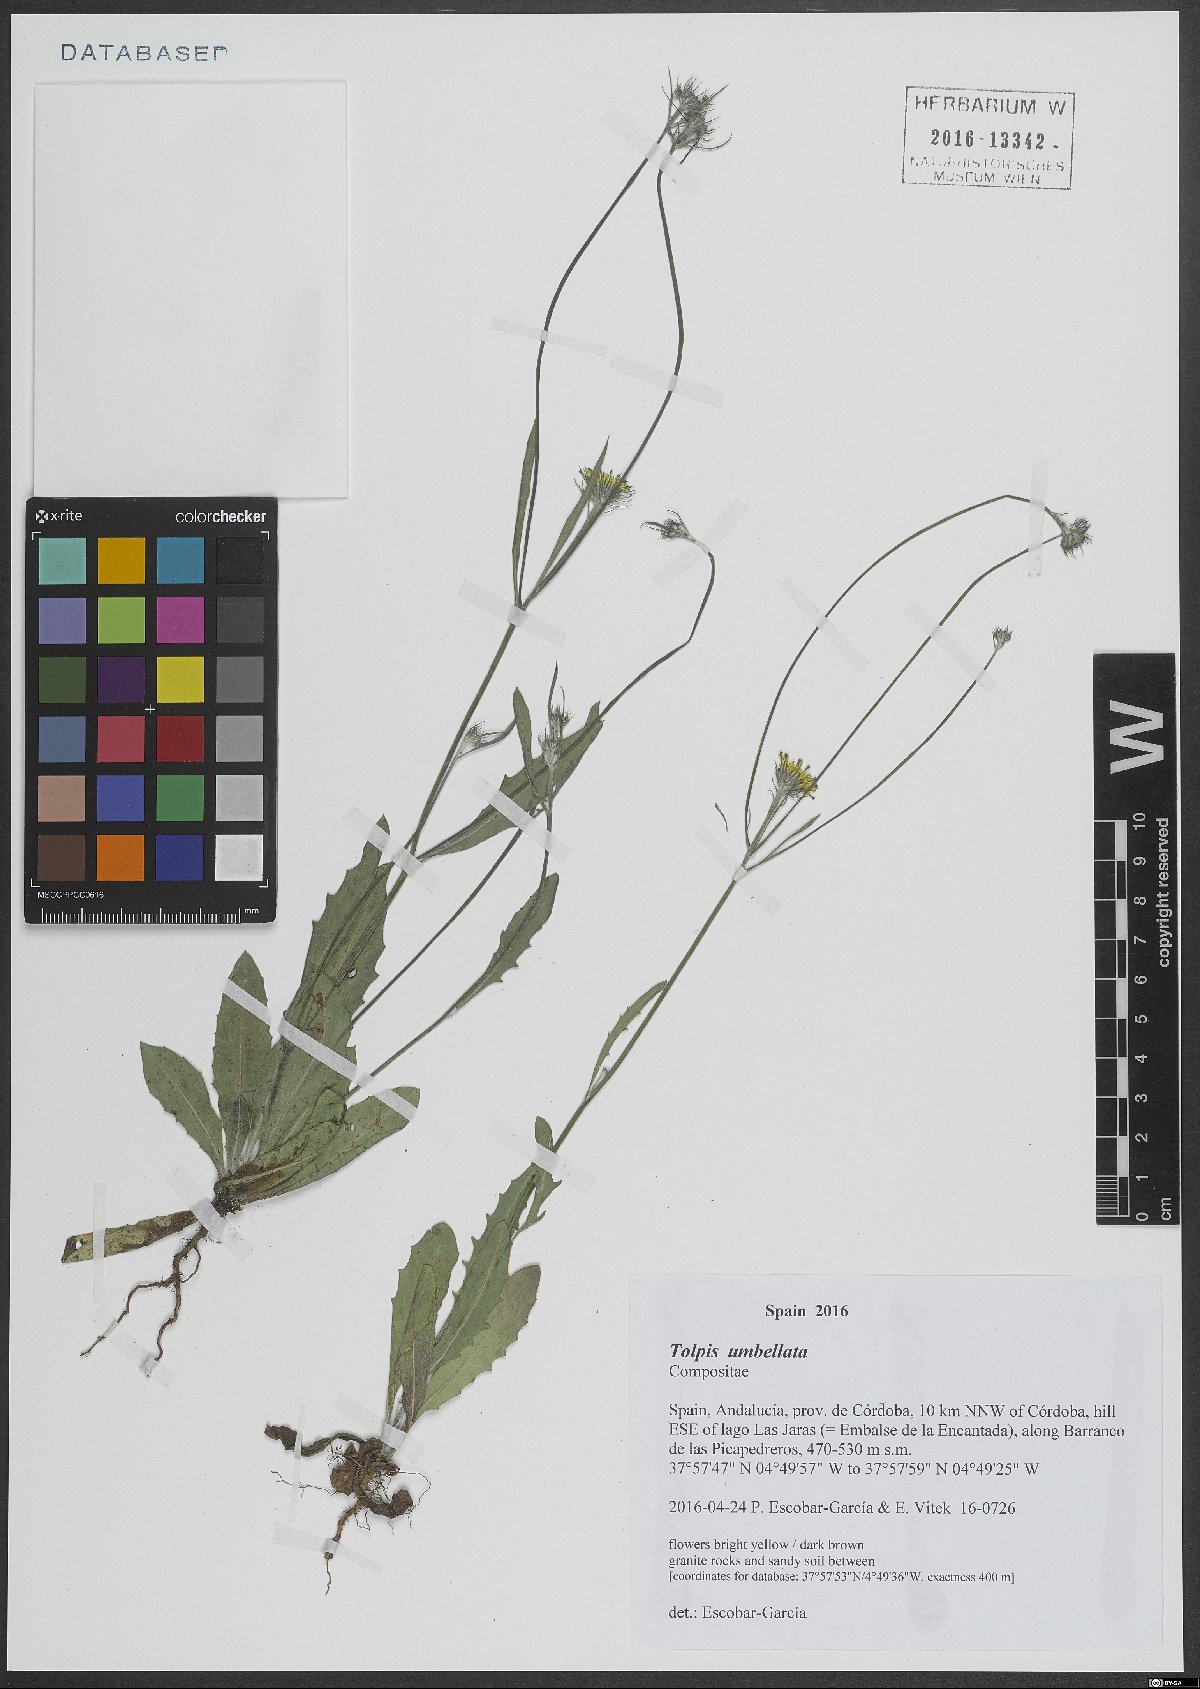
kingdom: Plantae
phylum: Tracheophyta
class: Magnoliopsida
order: Asterales
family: Asteraceae
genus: Tolpis
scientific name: Tolpis umbellata
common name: Yellow hawkweed
